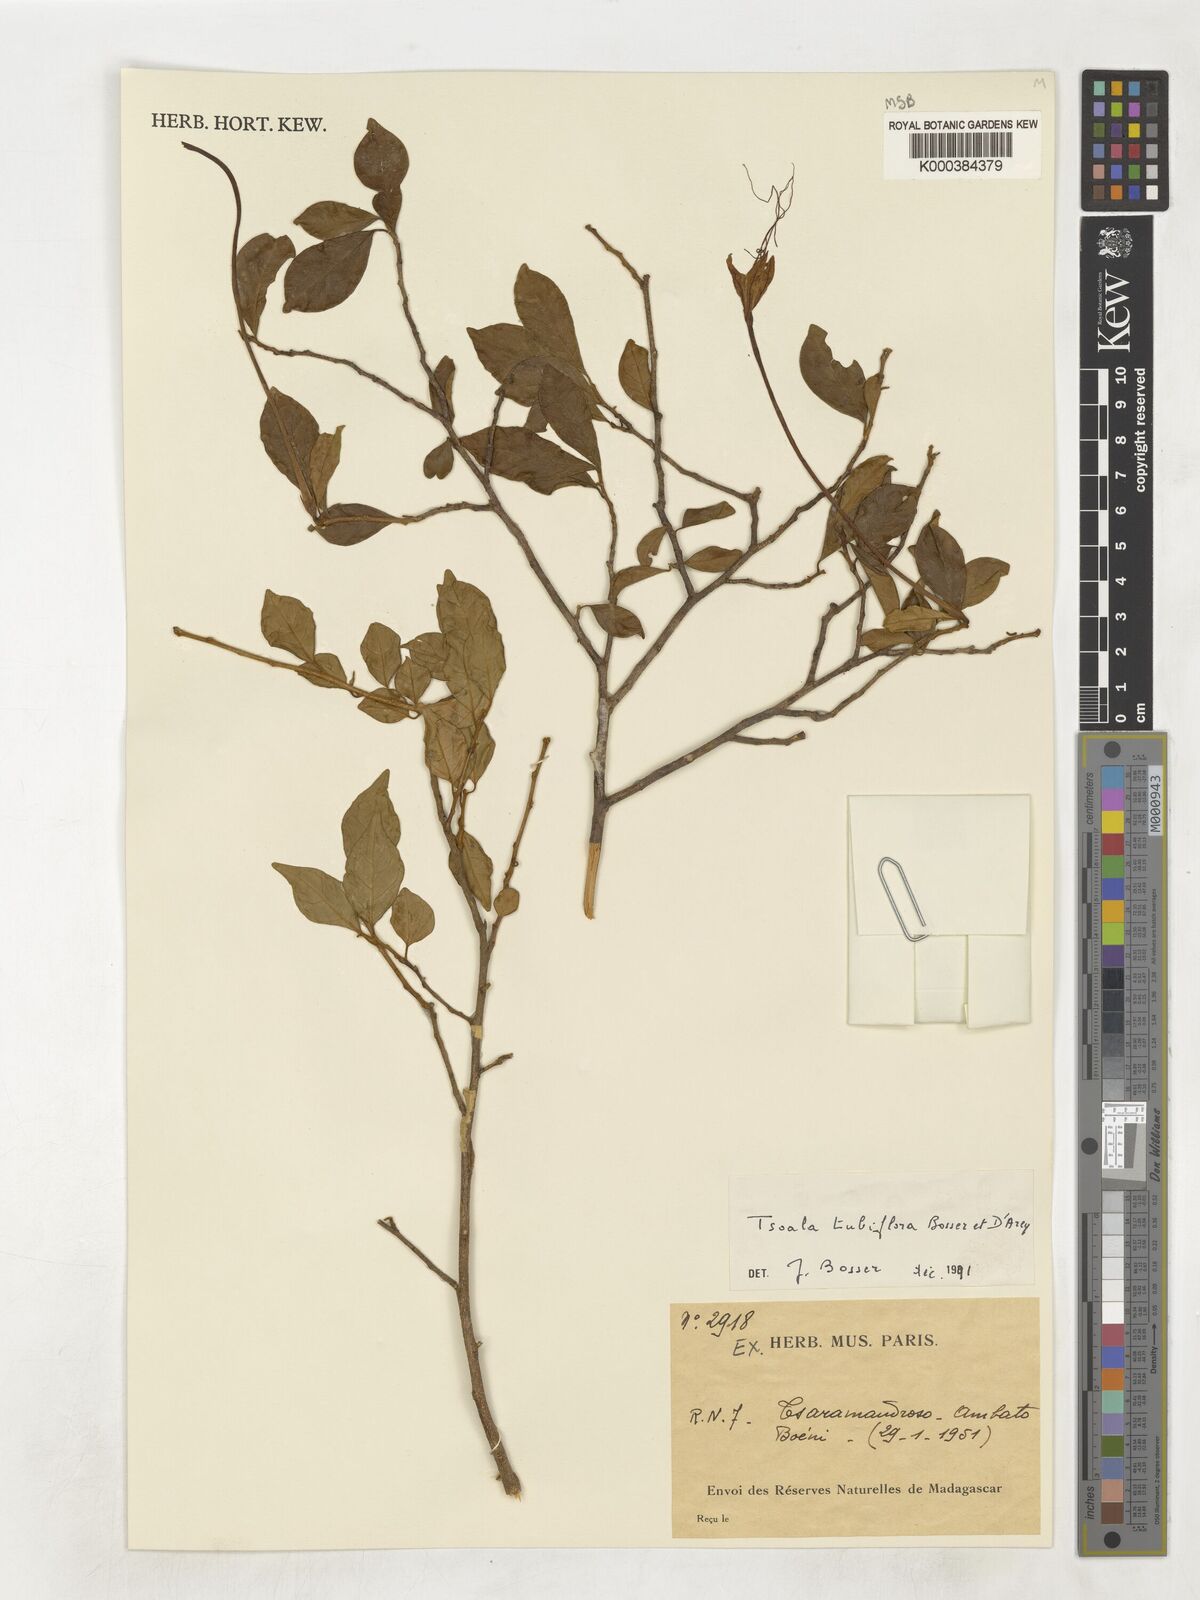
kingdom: Plantae
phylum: Tracheophyta
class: Magnoliopsida
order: Solanales
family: Solanaceae
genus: Tsoala
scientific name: Tsoala tubiflora
